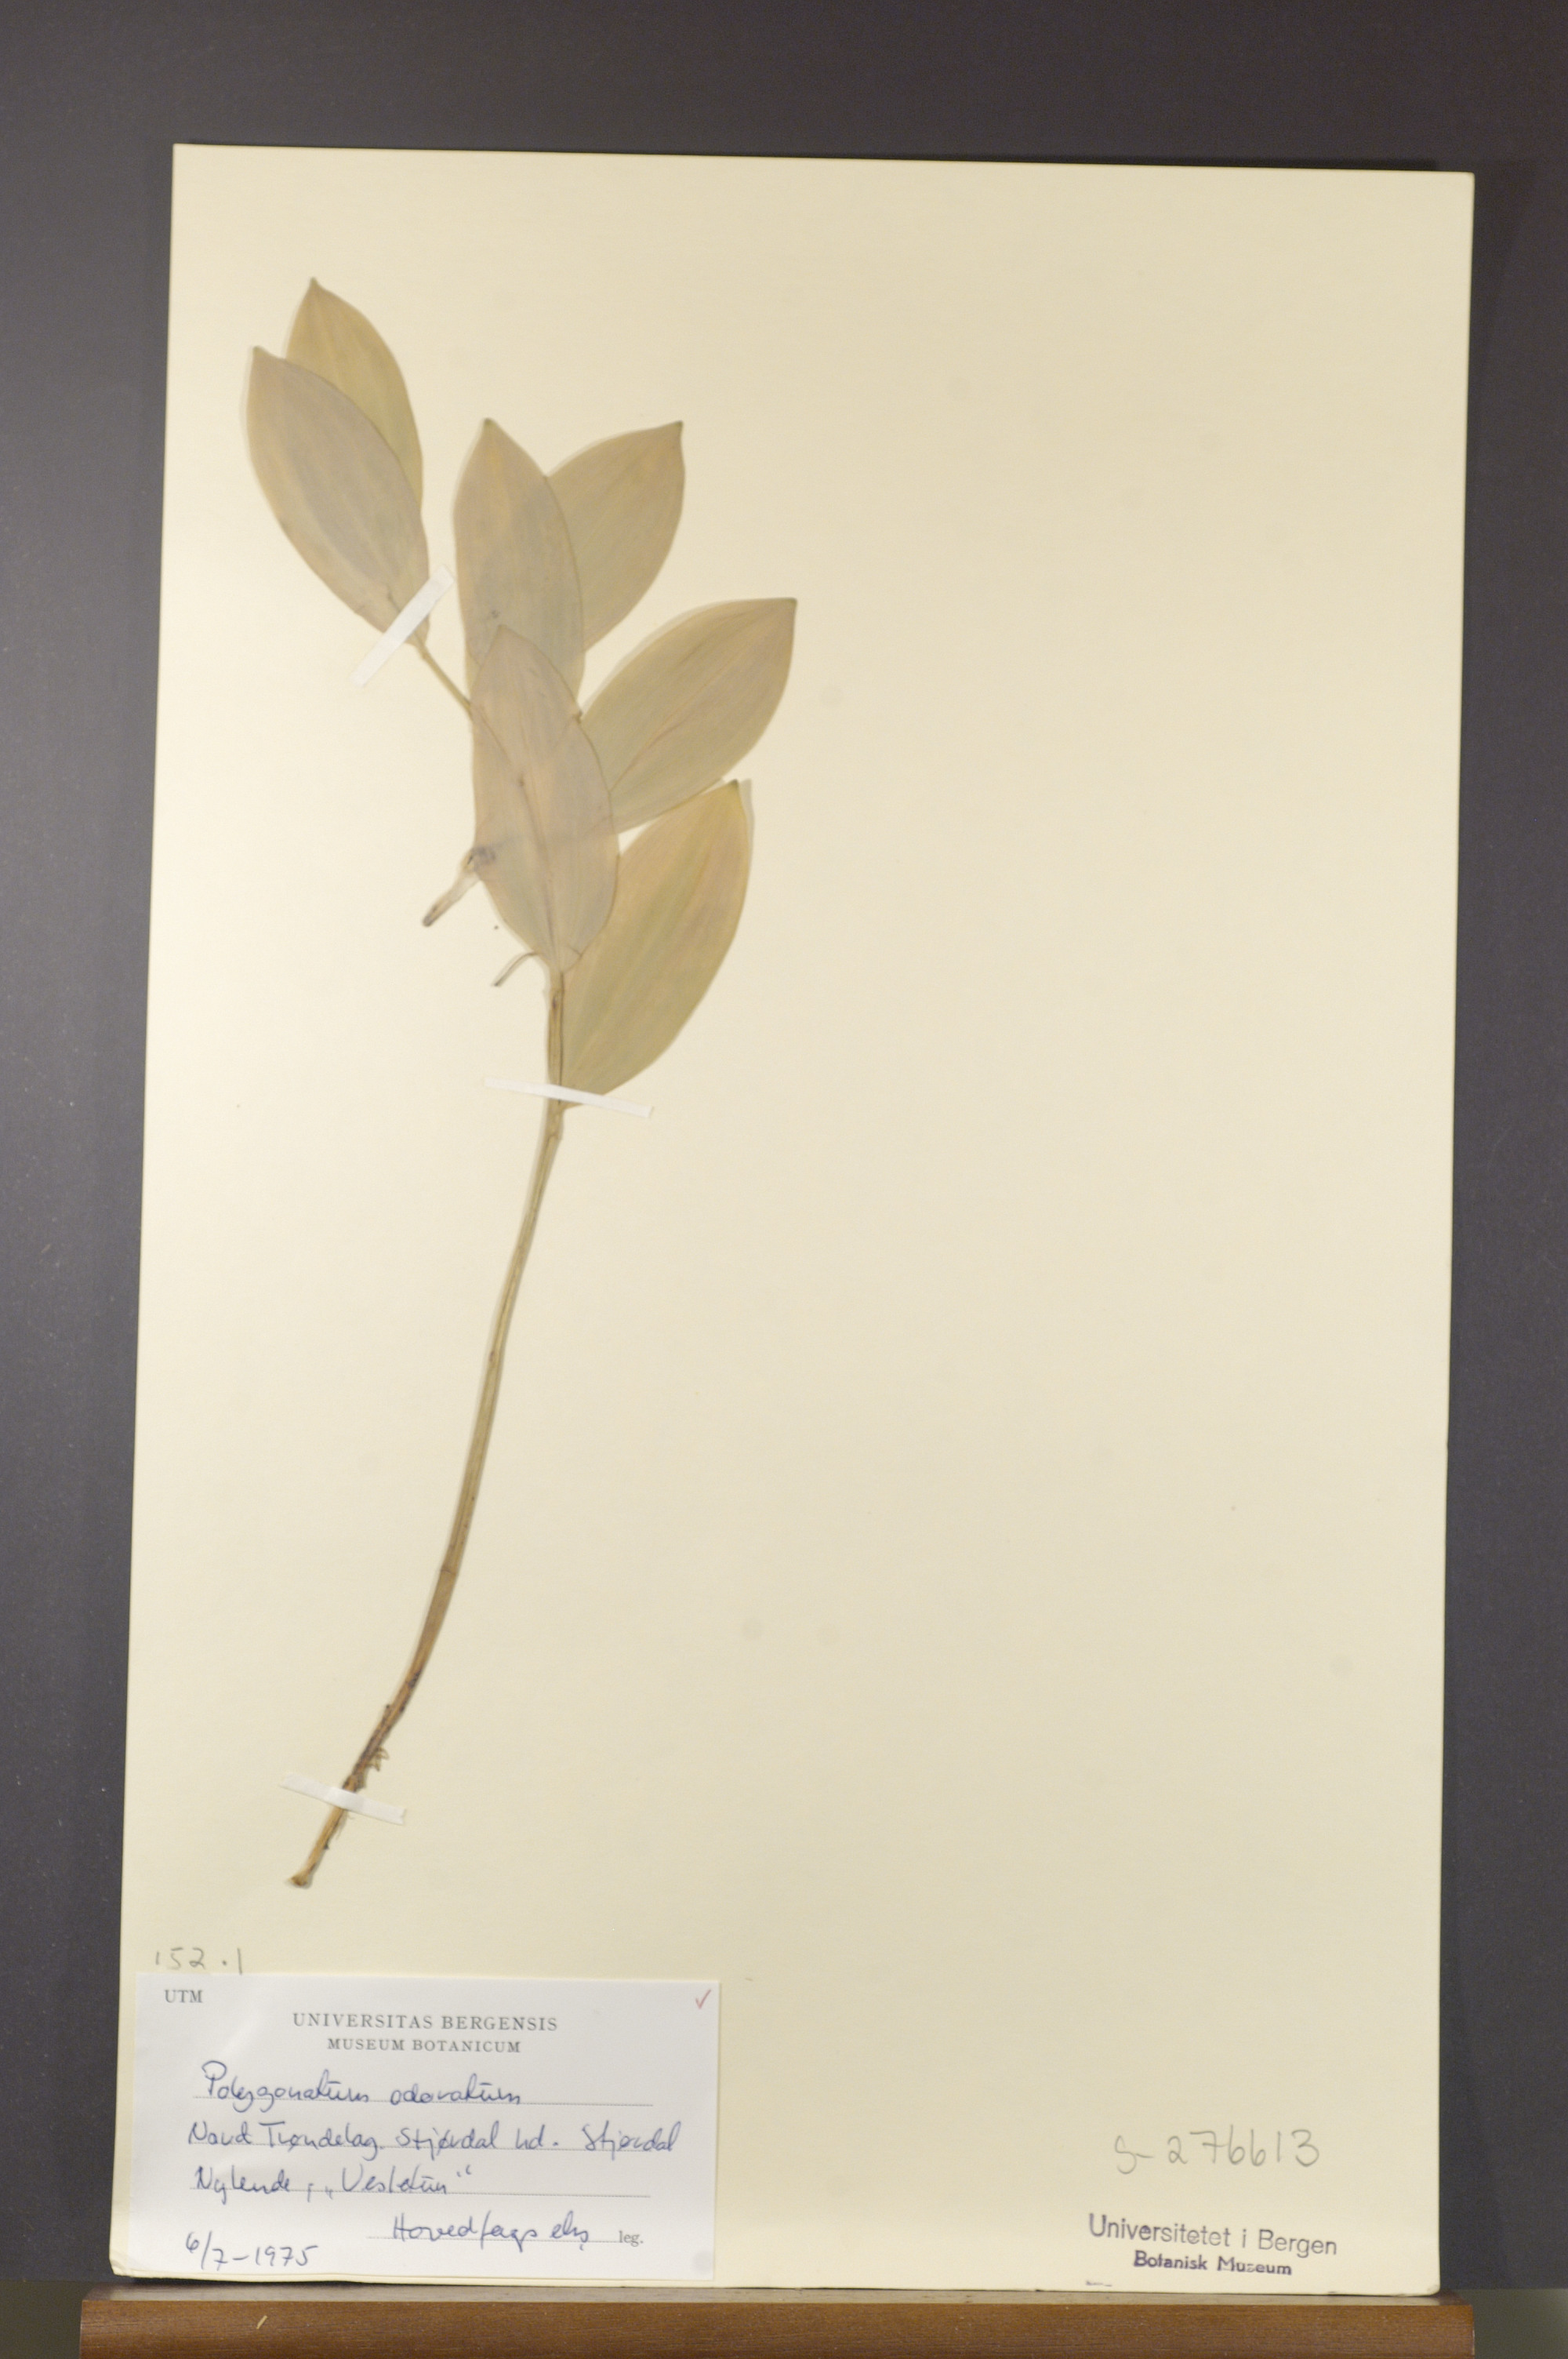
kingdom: Plantae
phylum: Tracheophyta
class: Liliopsida
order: Asparagales
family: Asparagaceae
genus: Polygonatum
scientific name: Polygonatum odoratum
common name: Angular solomon's-seal
